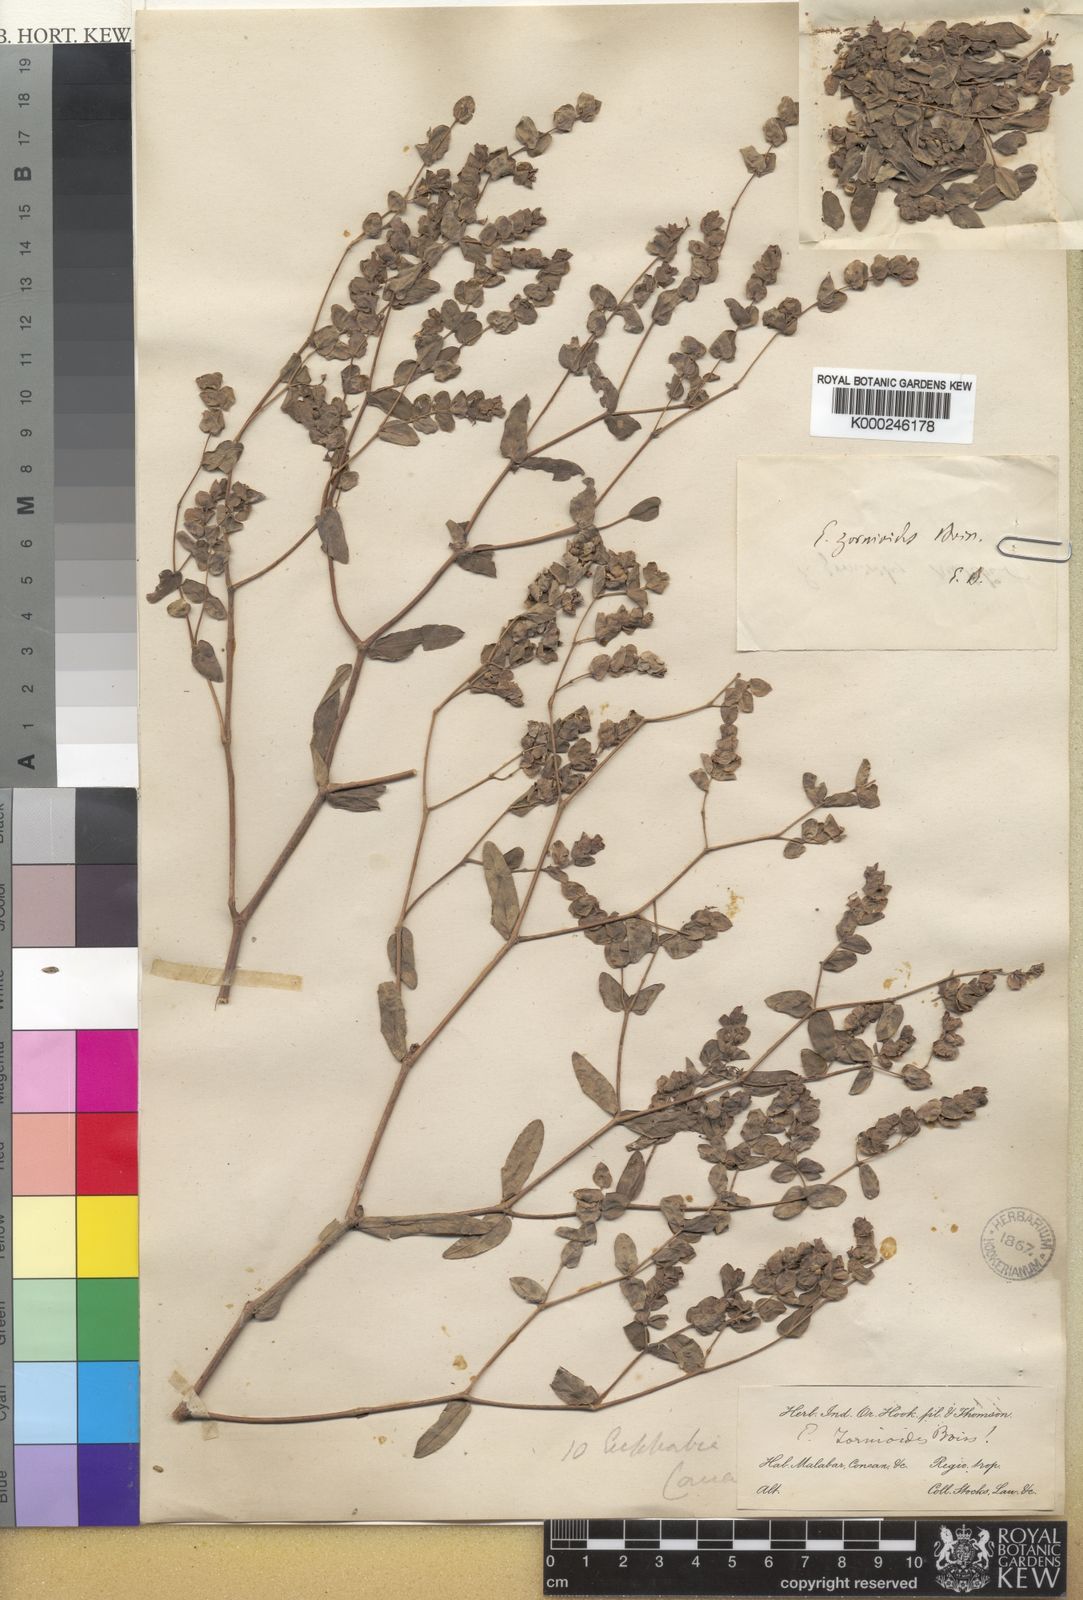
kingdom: Plantae
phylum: Tracheophyta
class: Magnoliopsida
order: Malpighiales
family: Euphorbiaceae
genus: Euphorbia
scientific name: Euphorbia pycnostegia
